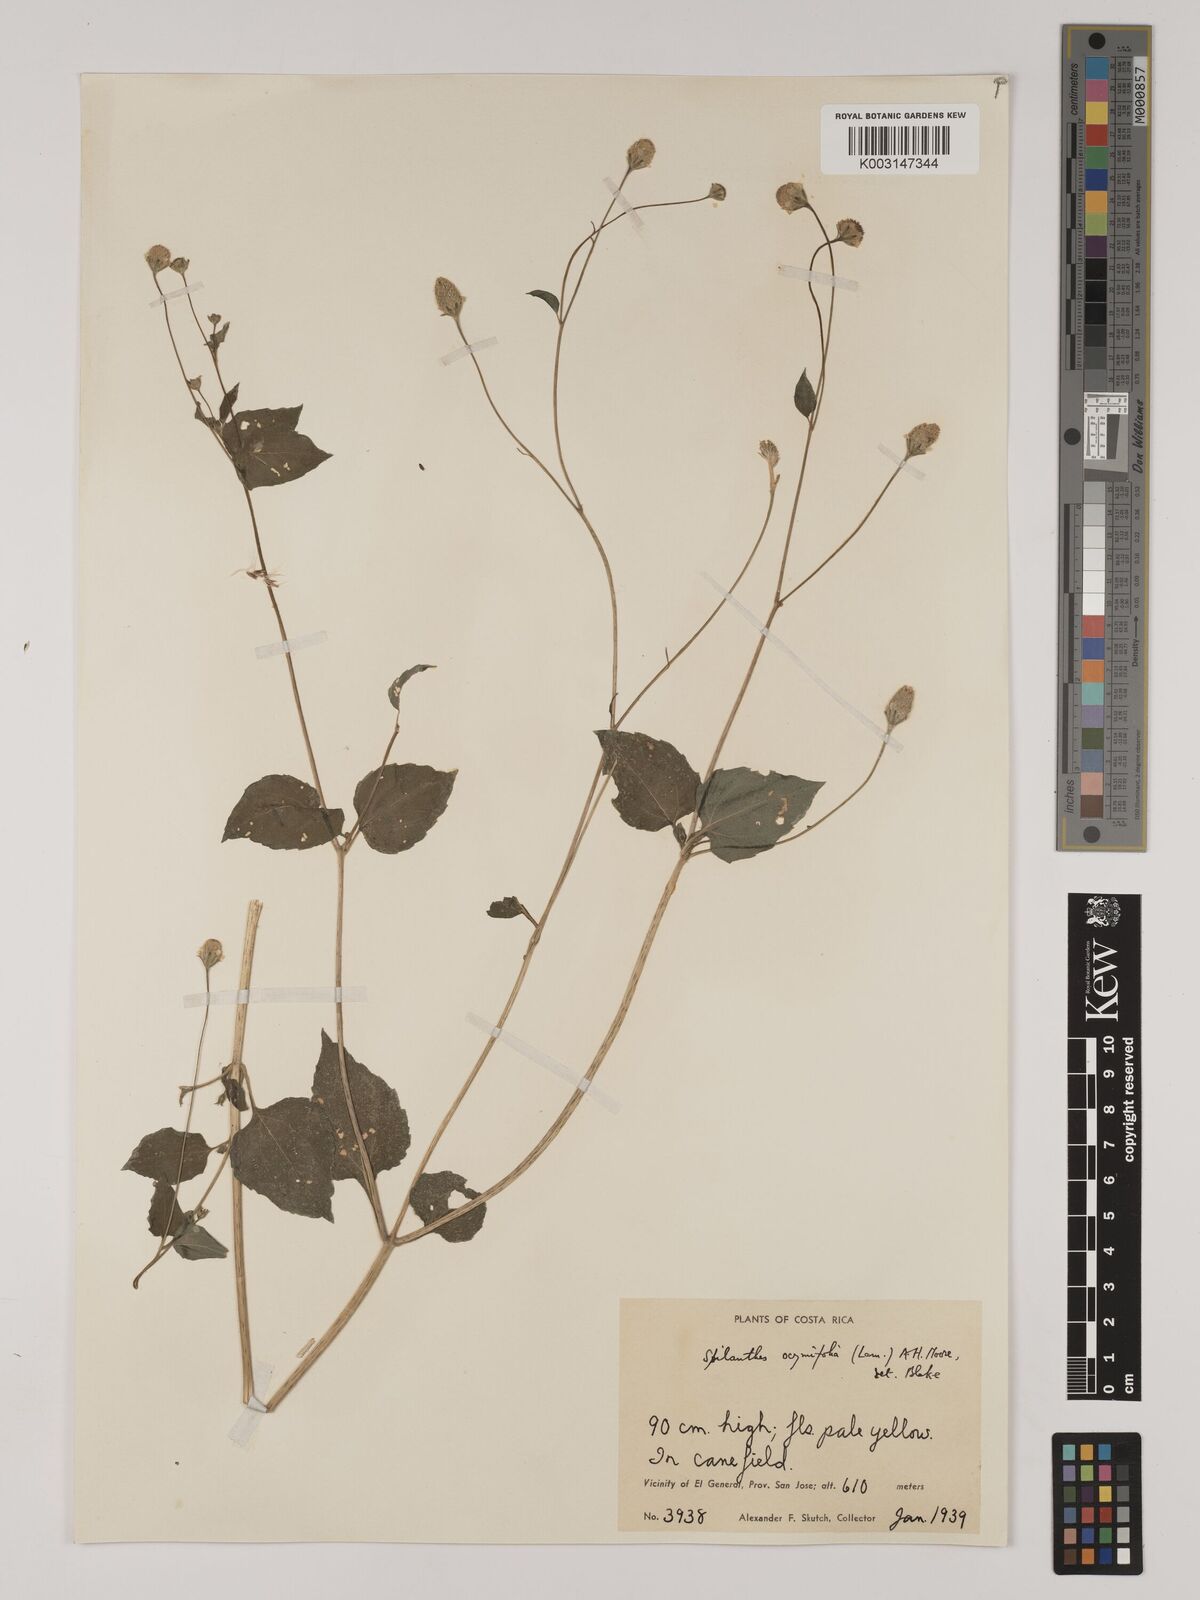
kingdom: Plantae
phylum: Tracheophyta
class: Magnoliopsida
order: Asterales
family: Asteraceae
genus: Acmella
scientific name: Acmella radicans
